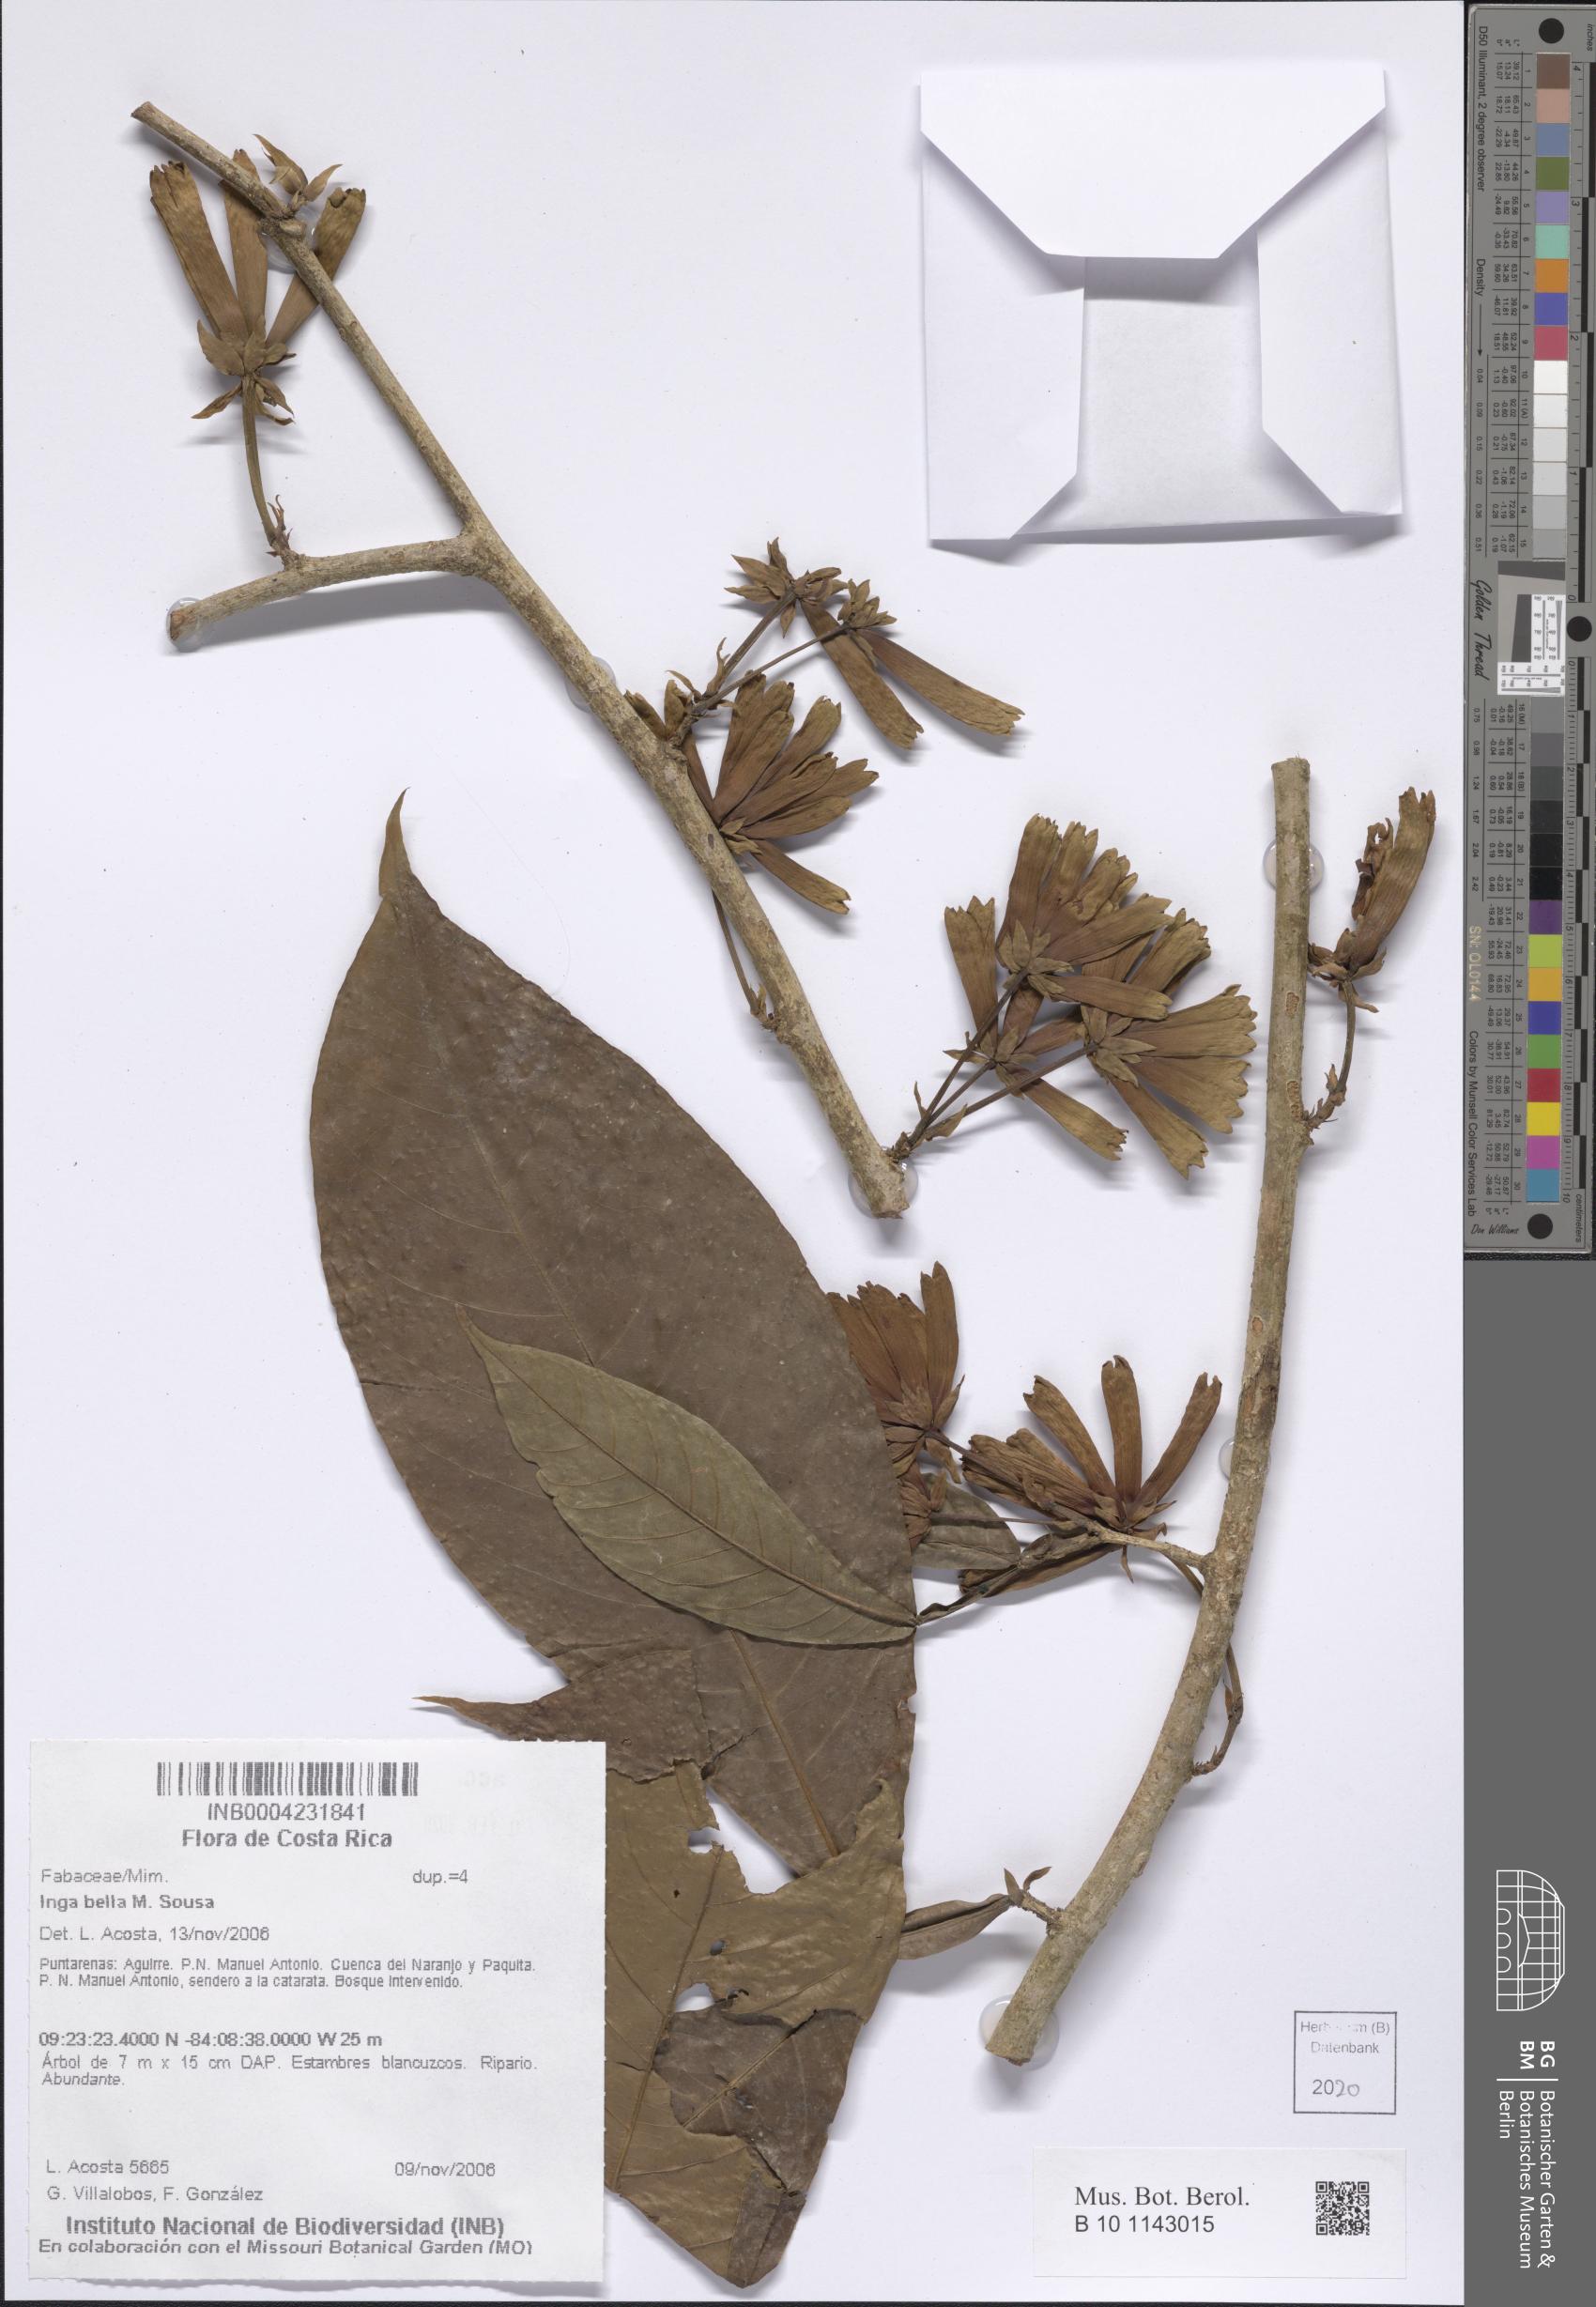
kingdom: Plantae
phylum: Tracheophyta
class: Magnoliopsida
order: Fabales
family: Fabaceae
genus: Inga
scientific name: Inga bella
